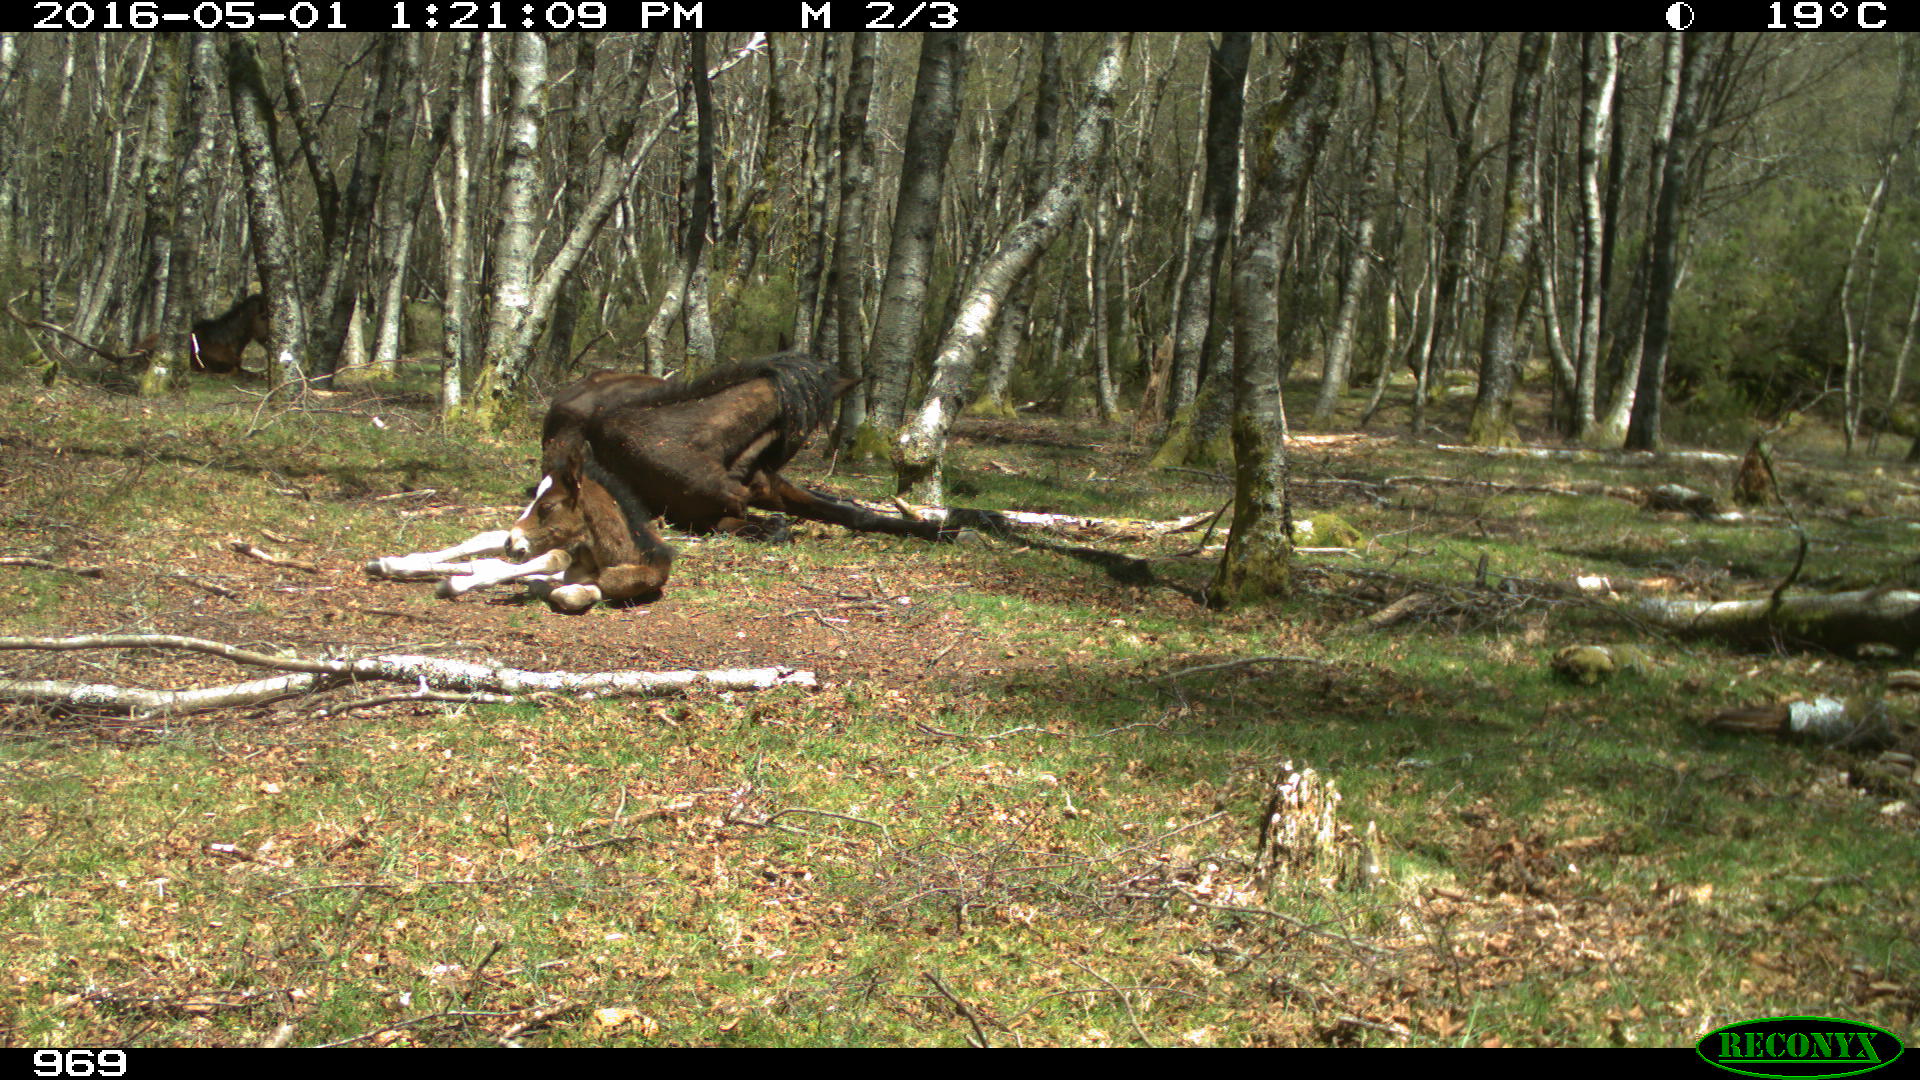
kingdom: Animalia
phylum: Chordata
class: Mammalia
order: Perissodactyla
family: Equidae
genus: Equus
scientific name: Equus caballus
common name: Horse
